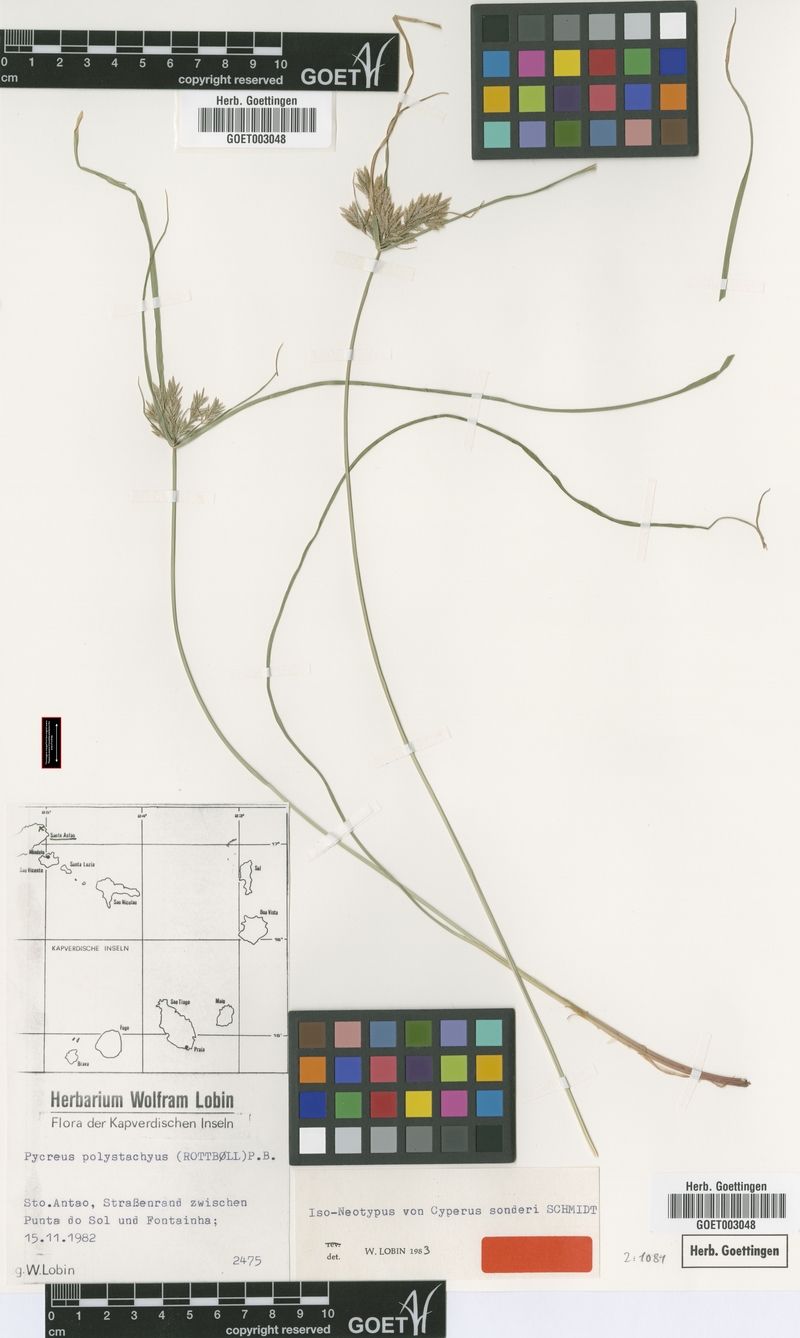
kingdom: Plantae
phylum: Tracheophyta
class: Liliopsida
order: Poales
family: Cyperaceae
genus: Cyperus
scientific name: Cyperus polystachyos
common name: Bunchy flat sedge
